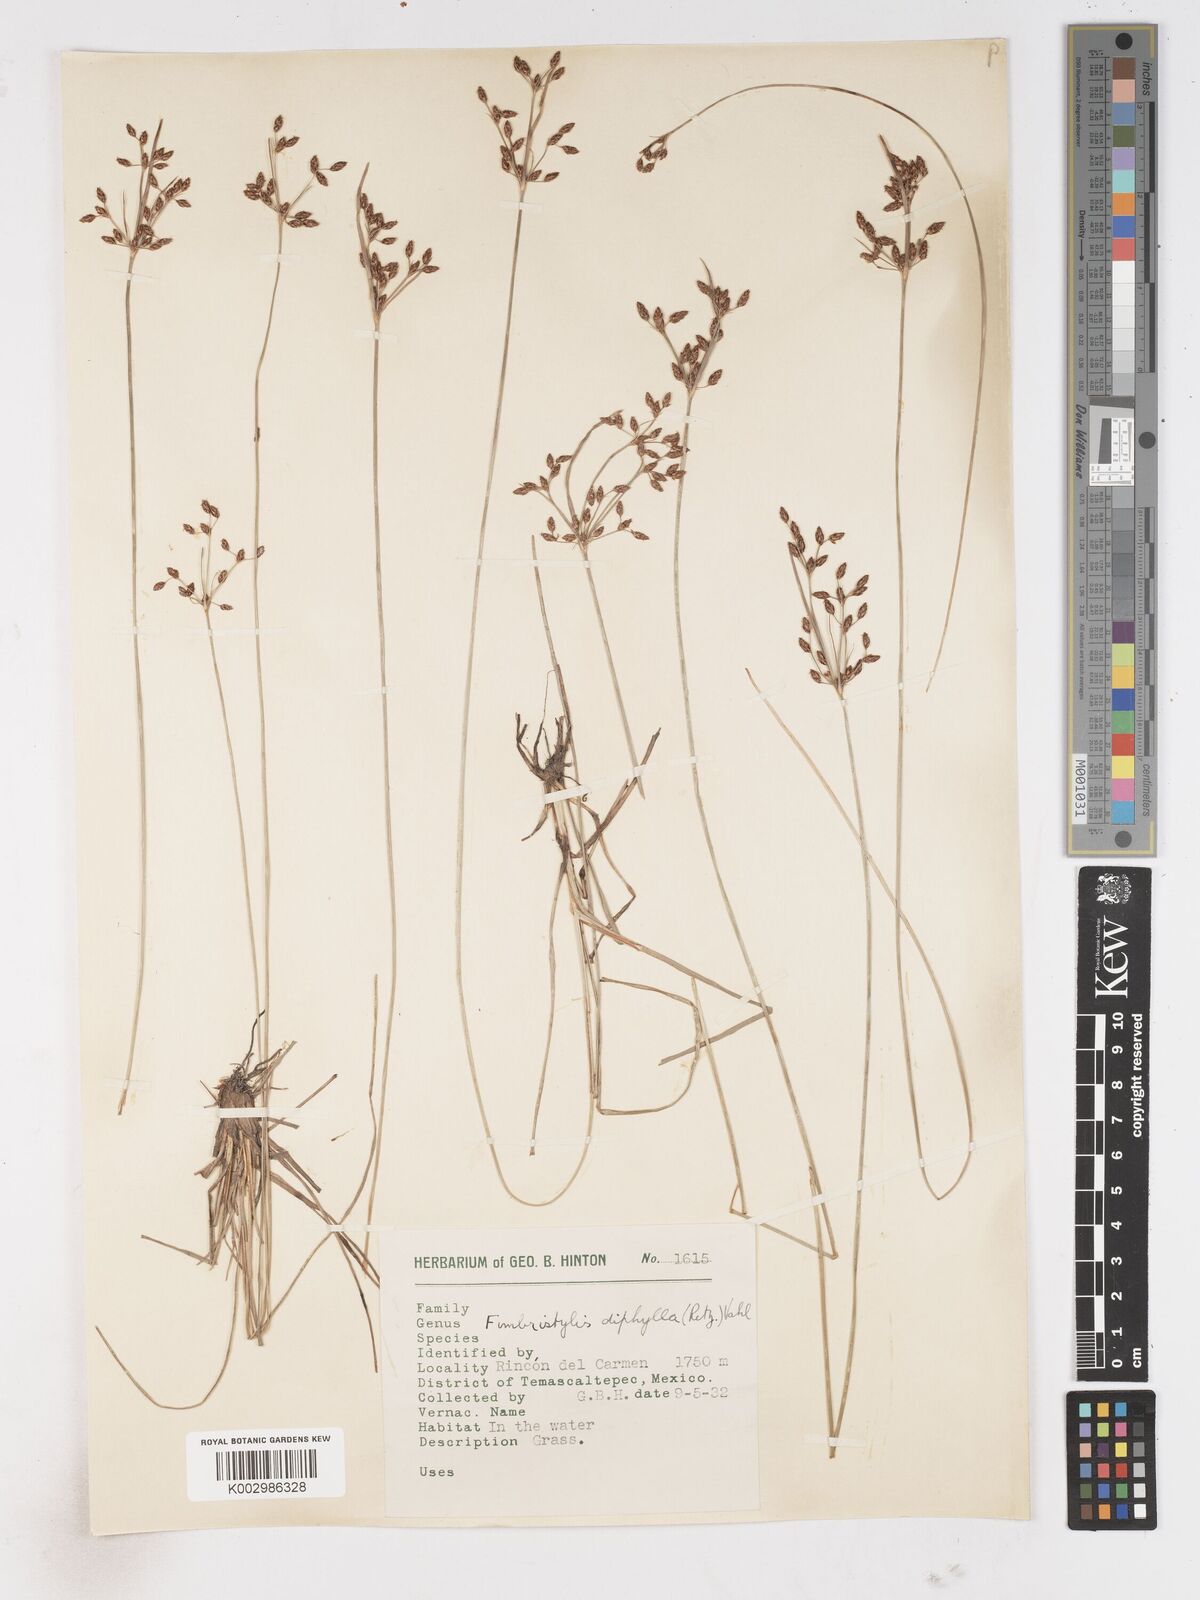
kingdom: Plantae
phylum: Tracheophyta
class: Liliopsida
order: Poales
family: Cyperaceae
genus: Fimbristylis
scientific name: Fimbristylis dichotoma
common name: Forked fimbry
